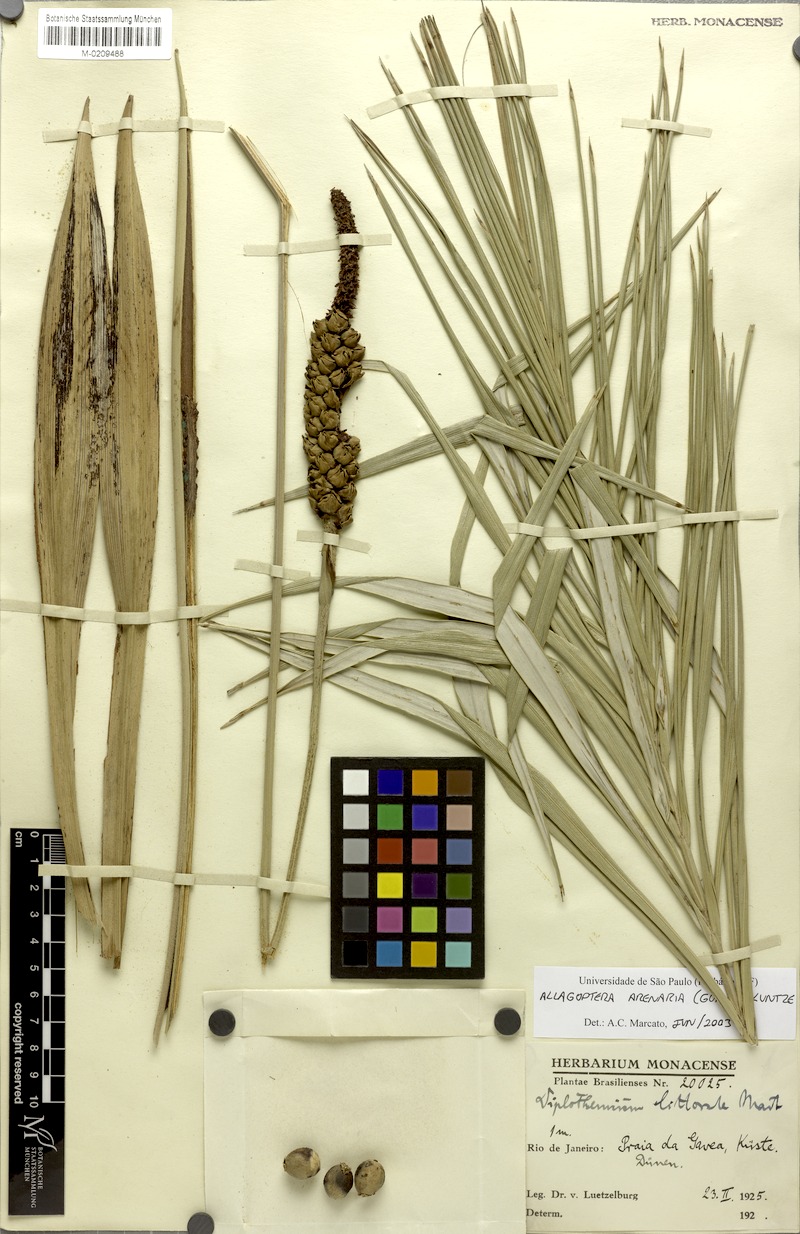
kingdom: Plantae
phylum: Tracheophyta
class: Liliopsida
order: Arecales
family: Arecaceae
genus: Allagoptera
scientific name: Allagoptera arenaria
